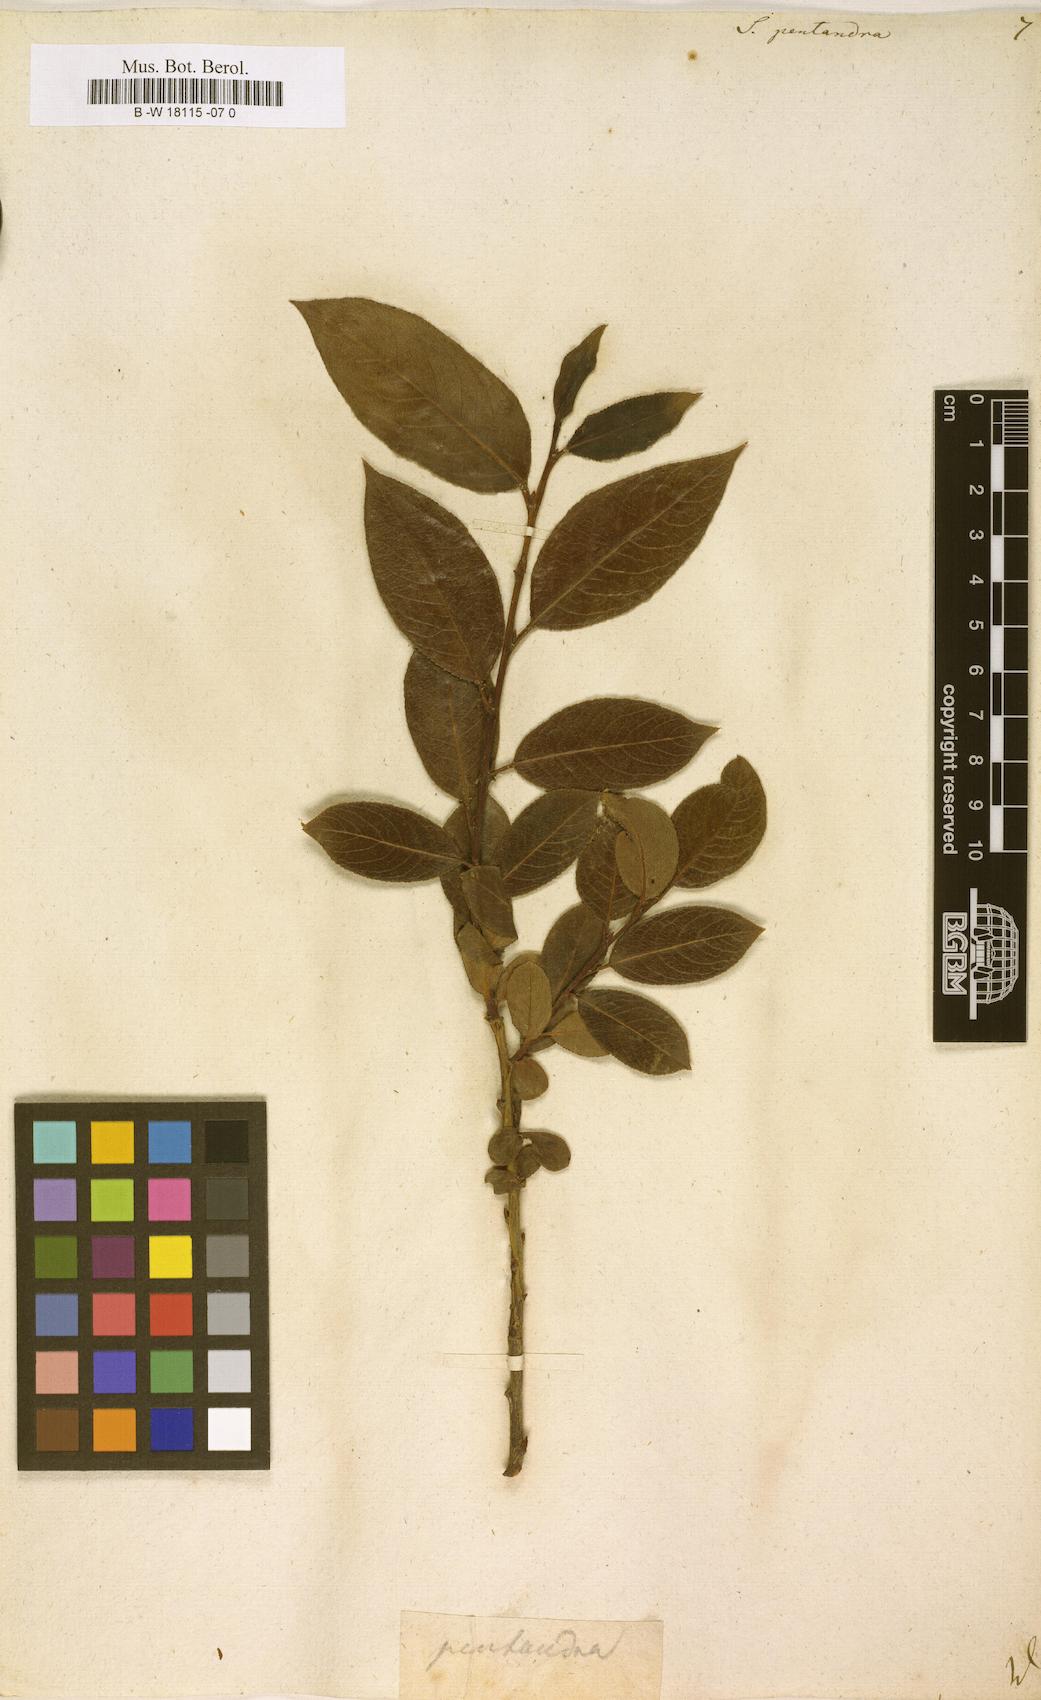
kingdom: Plantae
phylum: Tracheophyta
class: Magnoliopsida
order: Malpighiales
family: Salicaceae
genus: Salix
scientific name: Salix pentandra
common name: Bay willow
